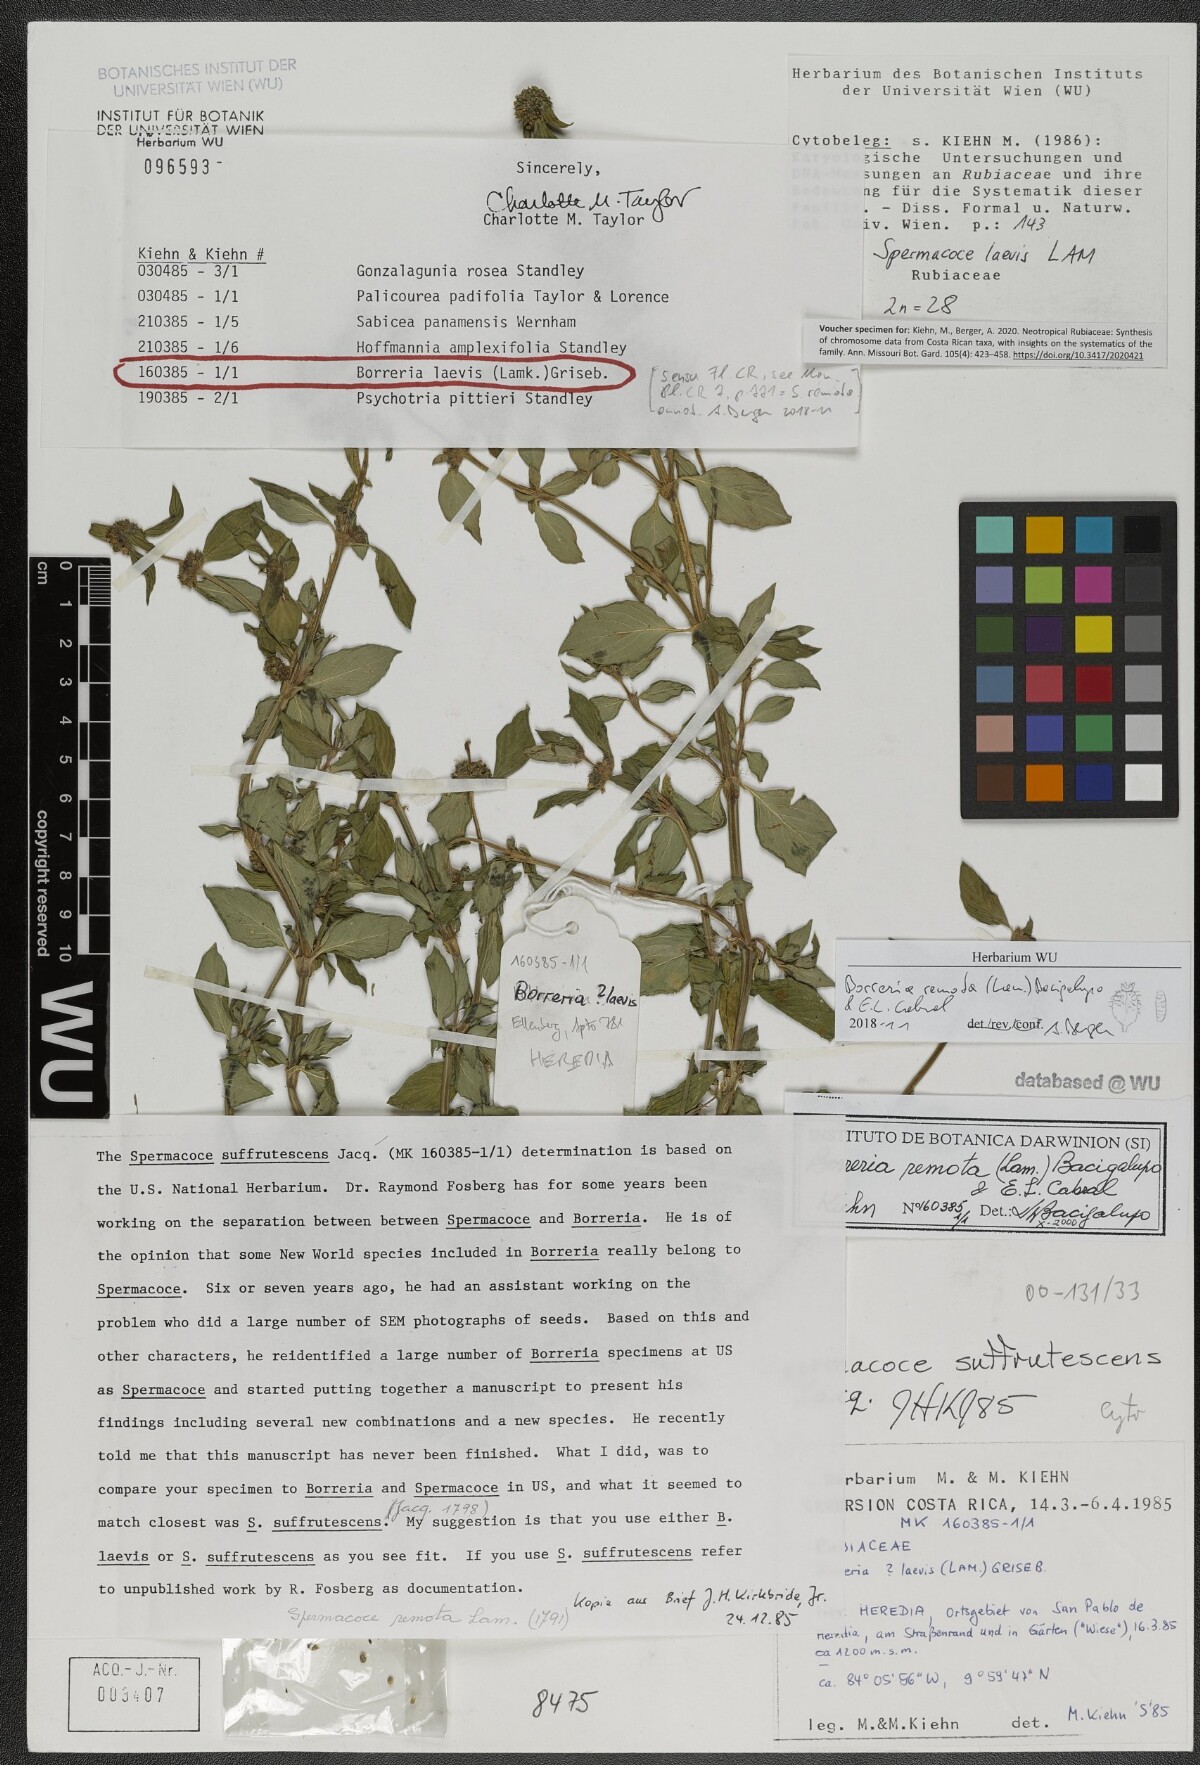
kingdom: Plantae
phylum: Tracheophyta
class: Magnoliopsida
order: Gentianales
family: Rubiaceae
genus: Spermacoce
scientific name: Spermacoce remota
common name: Woodland false buttonweed
